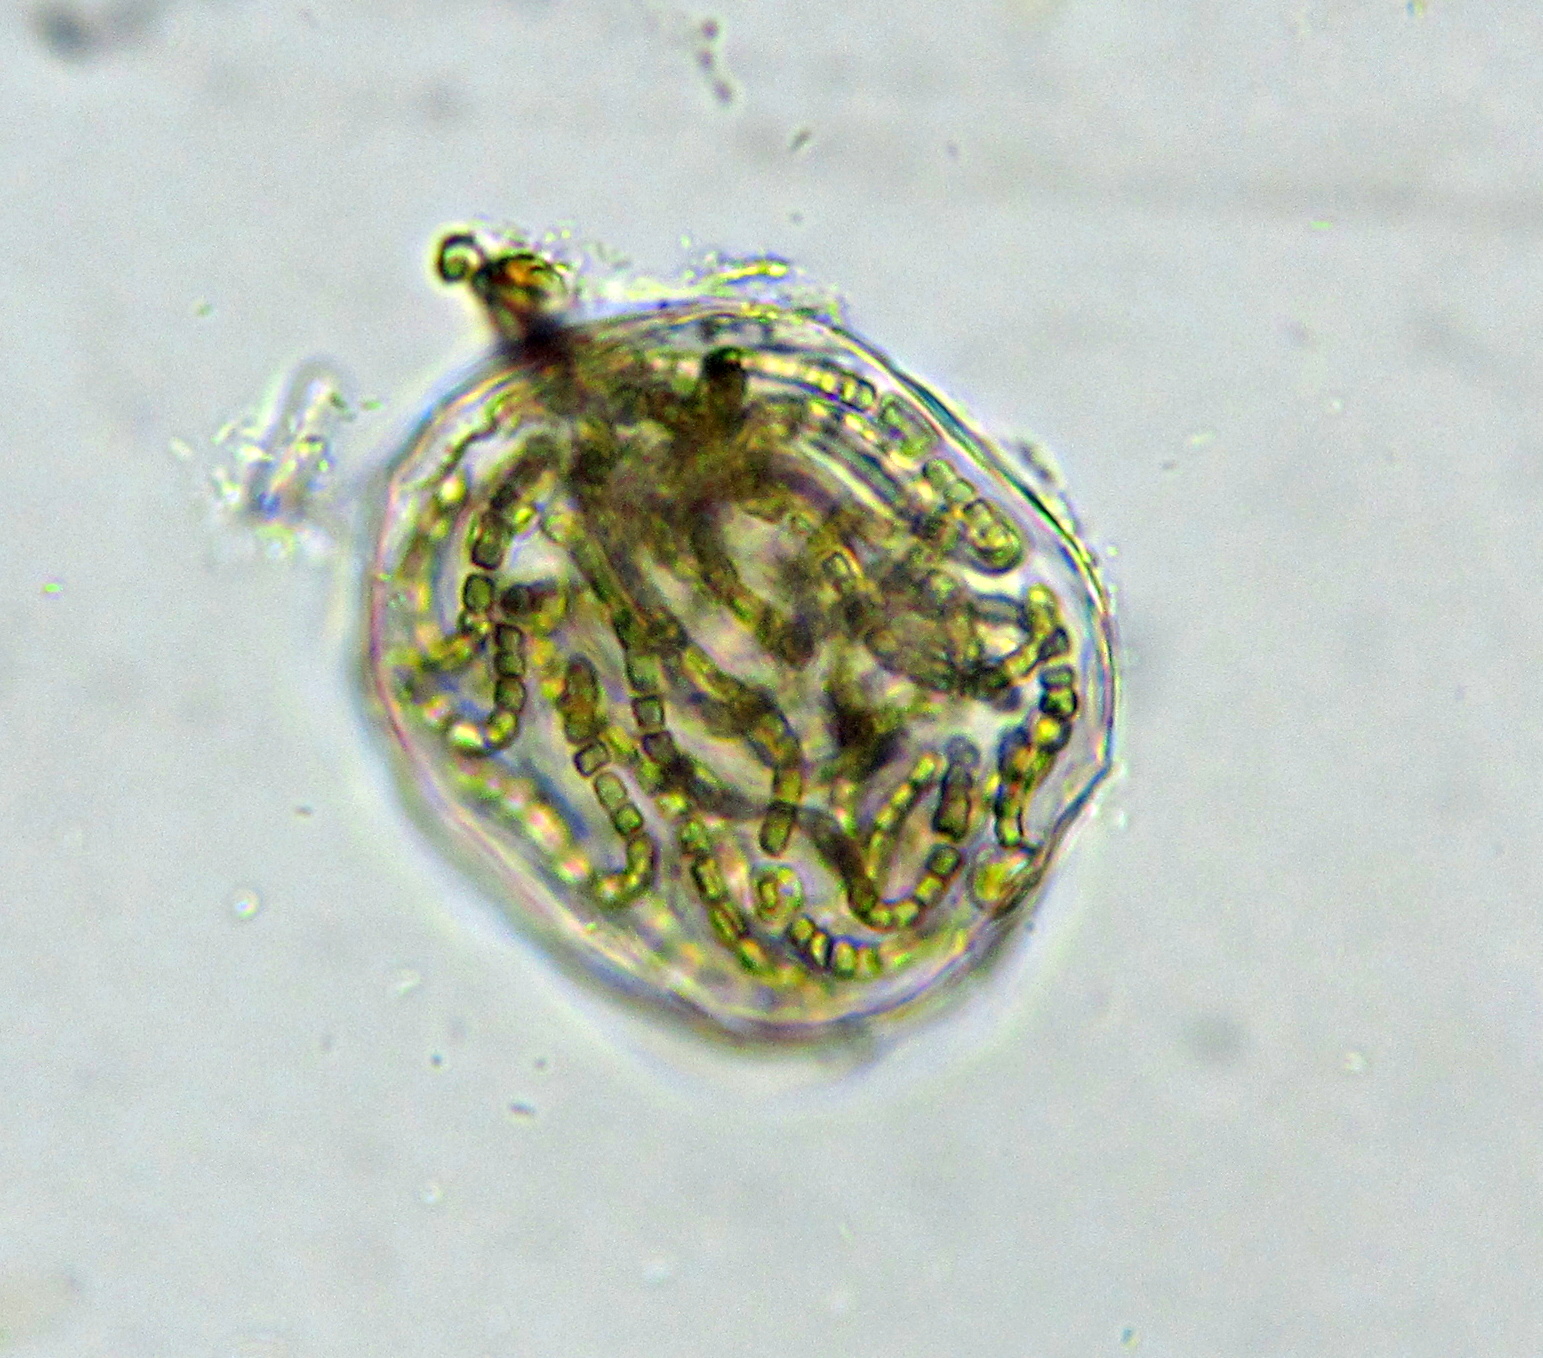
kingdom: Bacteria
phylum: Cyanobacteria
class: Cyanobacteriia
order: Cyanobacteriales
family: Nostocaceae
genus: Nostoc
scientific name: Nostoc
